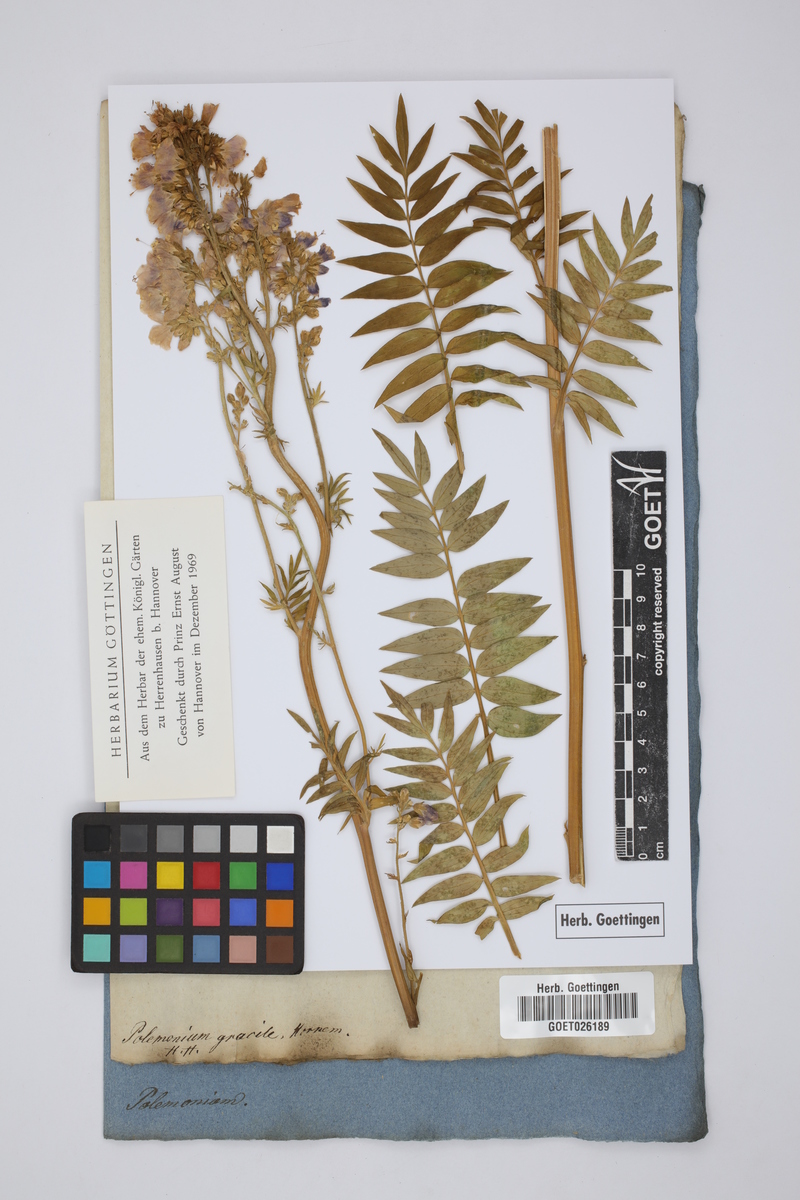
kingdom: Plantae
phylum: Tracheophyta
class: Magnoliopsida
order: Ericales
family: Polemoniaceae
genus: Polemonium
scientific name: Polemonium caeruleum
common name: Jacob's-ladder
